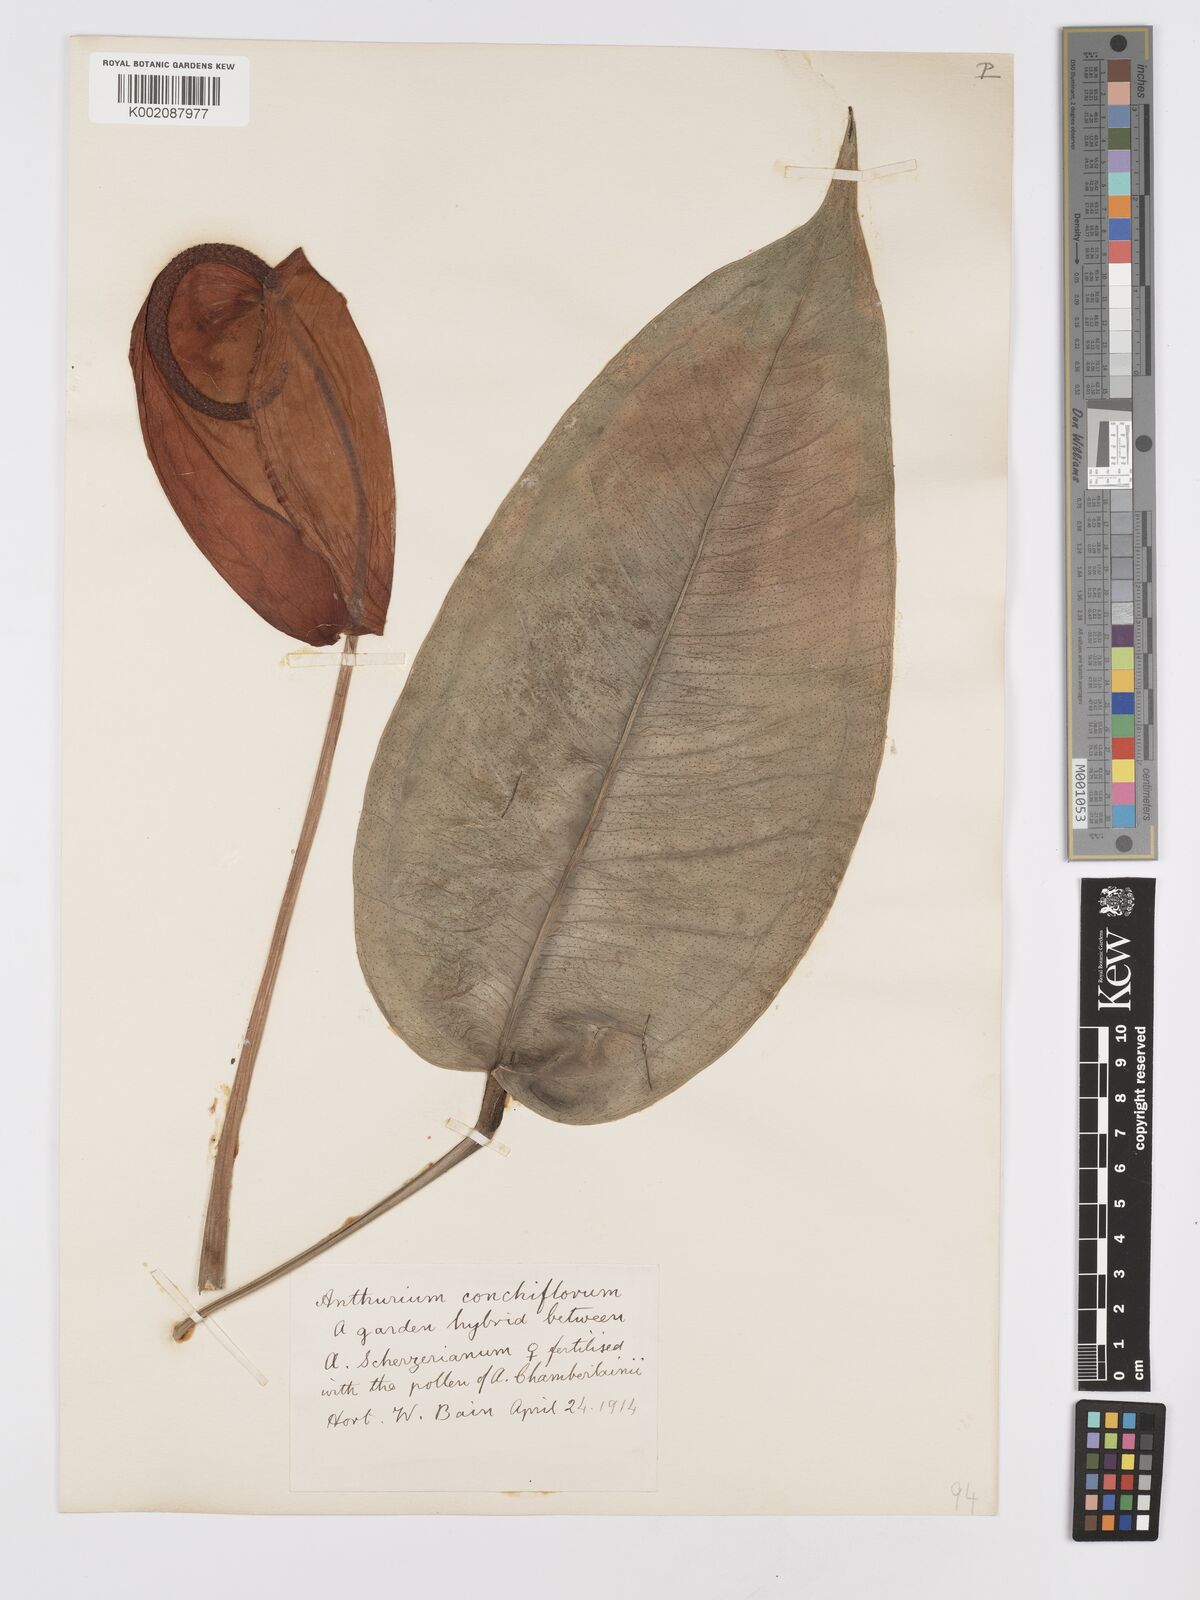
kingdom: Plantae
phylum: Tracheophyta
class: Liliopsida
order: Alismatales
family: Araceae
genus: Anthurium
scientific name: Anthurium
